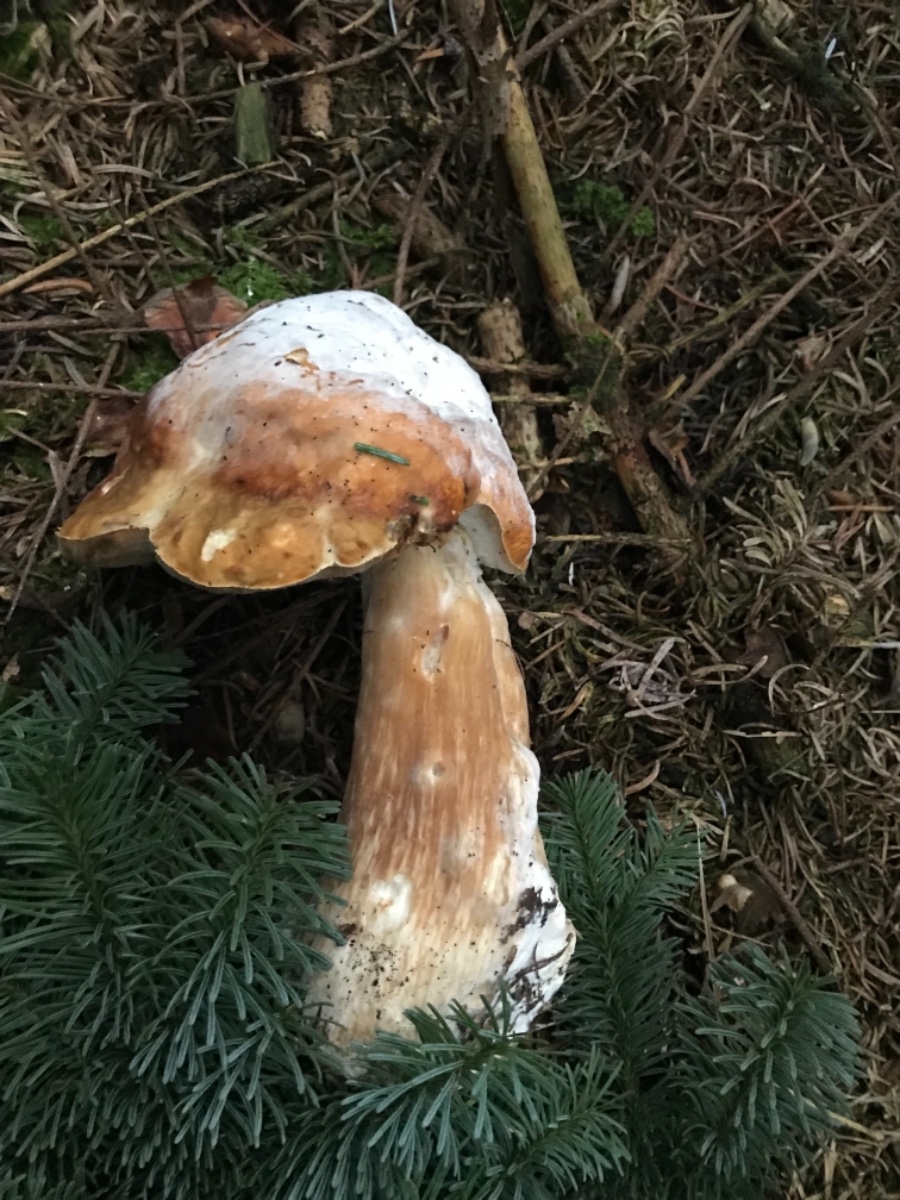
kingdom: Fungi
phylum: Basidiomycota
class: Agaricomycetes
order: Boletales
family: Boletaceae
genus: Boletus
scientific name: Boletus edulis
